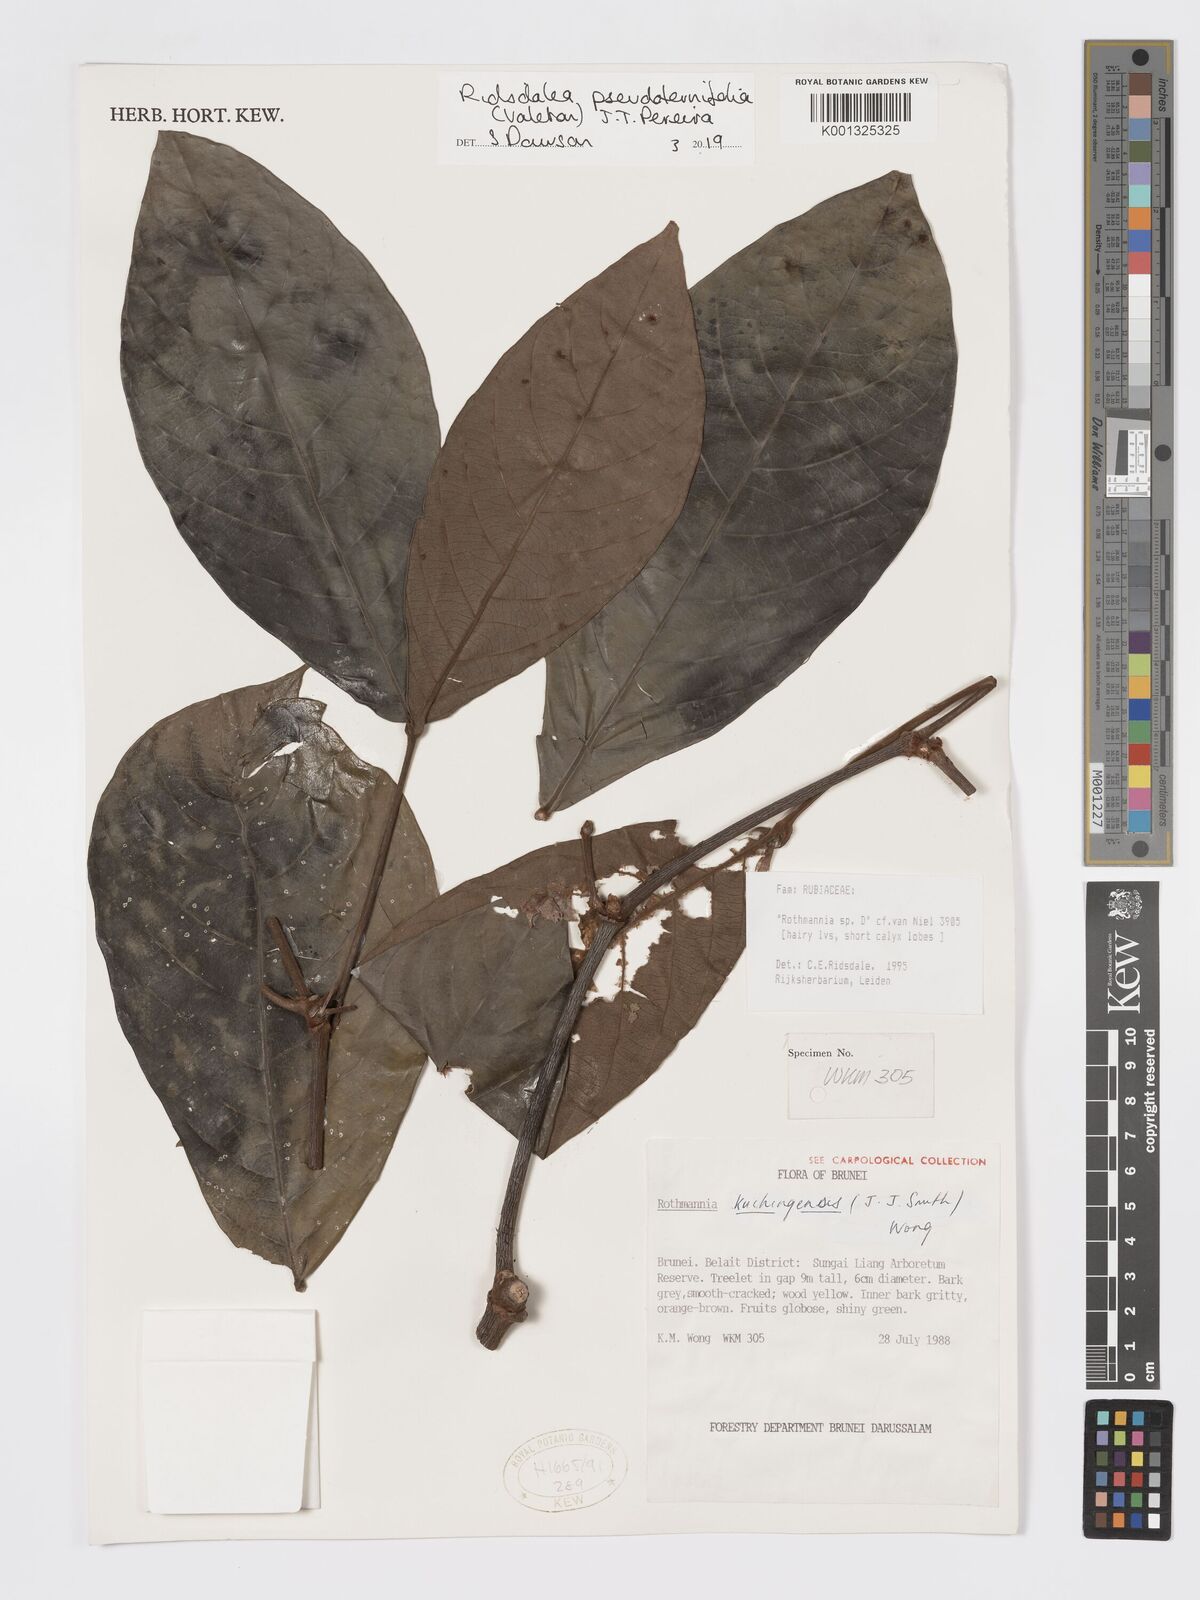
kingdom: Plantae
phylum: Tracheophyta
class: Magnoliopsida
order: Gentianales
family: Rubiaceae
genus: Ridsdalea
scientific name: Ridsdalea pseudoternifolia
